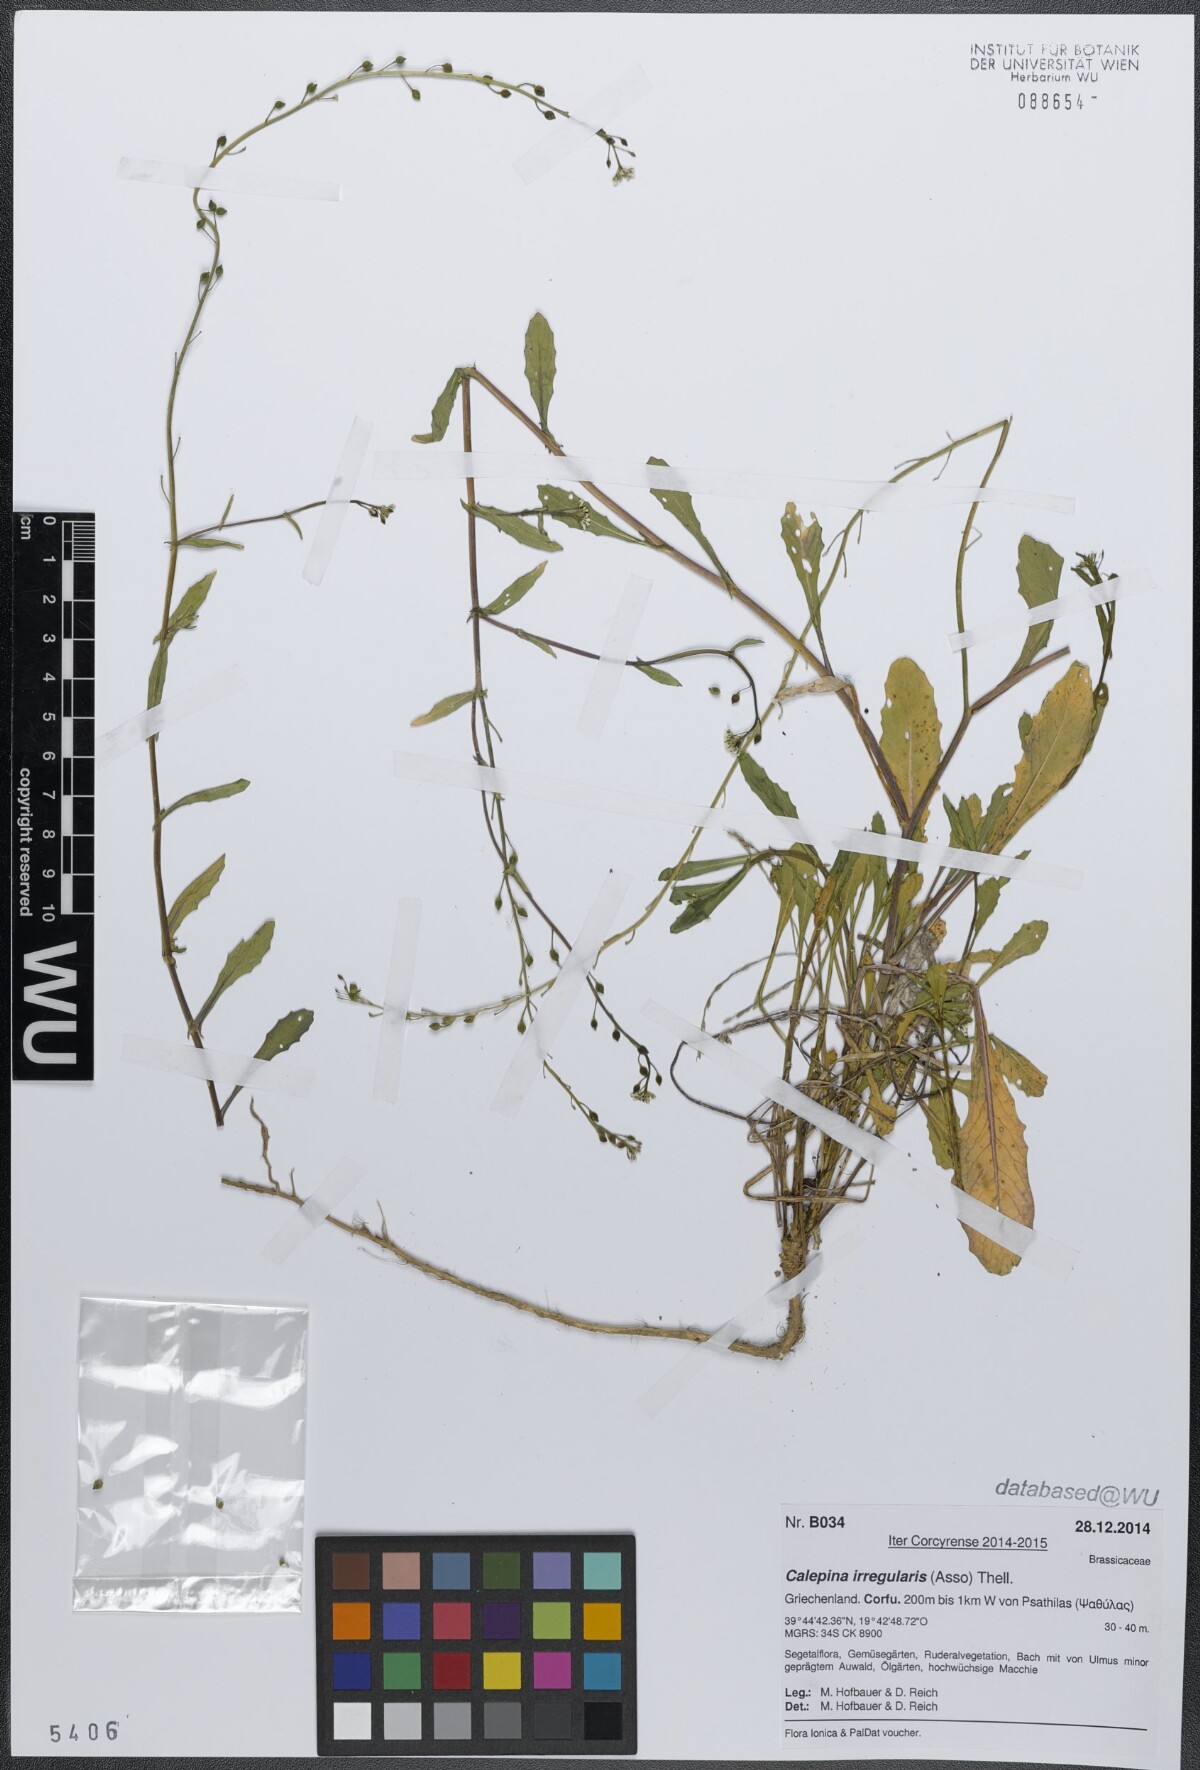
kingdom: Plantae
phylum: Tracheophyta
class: Magnoliopsida
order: Brassicales
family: Brassicaceae
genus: Calepina
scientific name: Calepina irregularis
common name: White ballmustard
